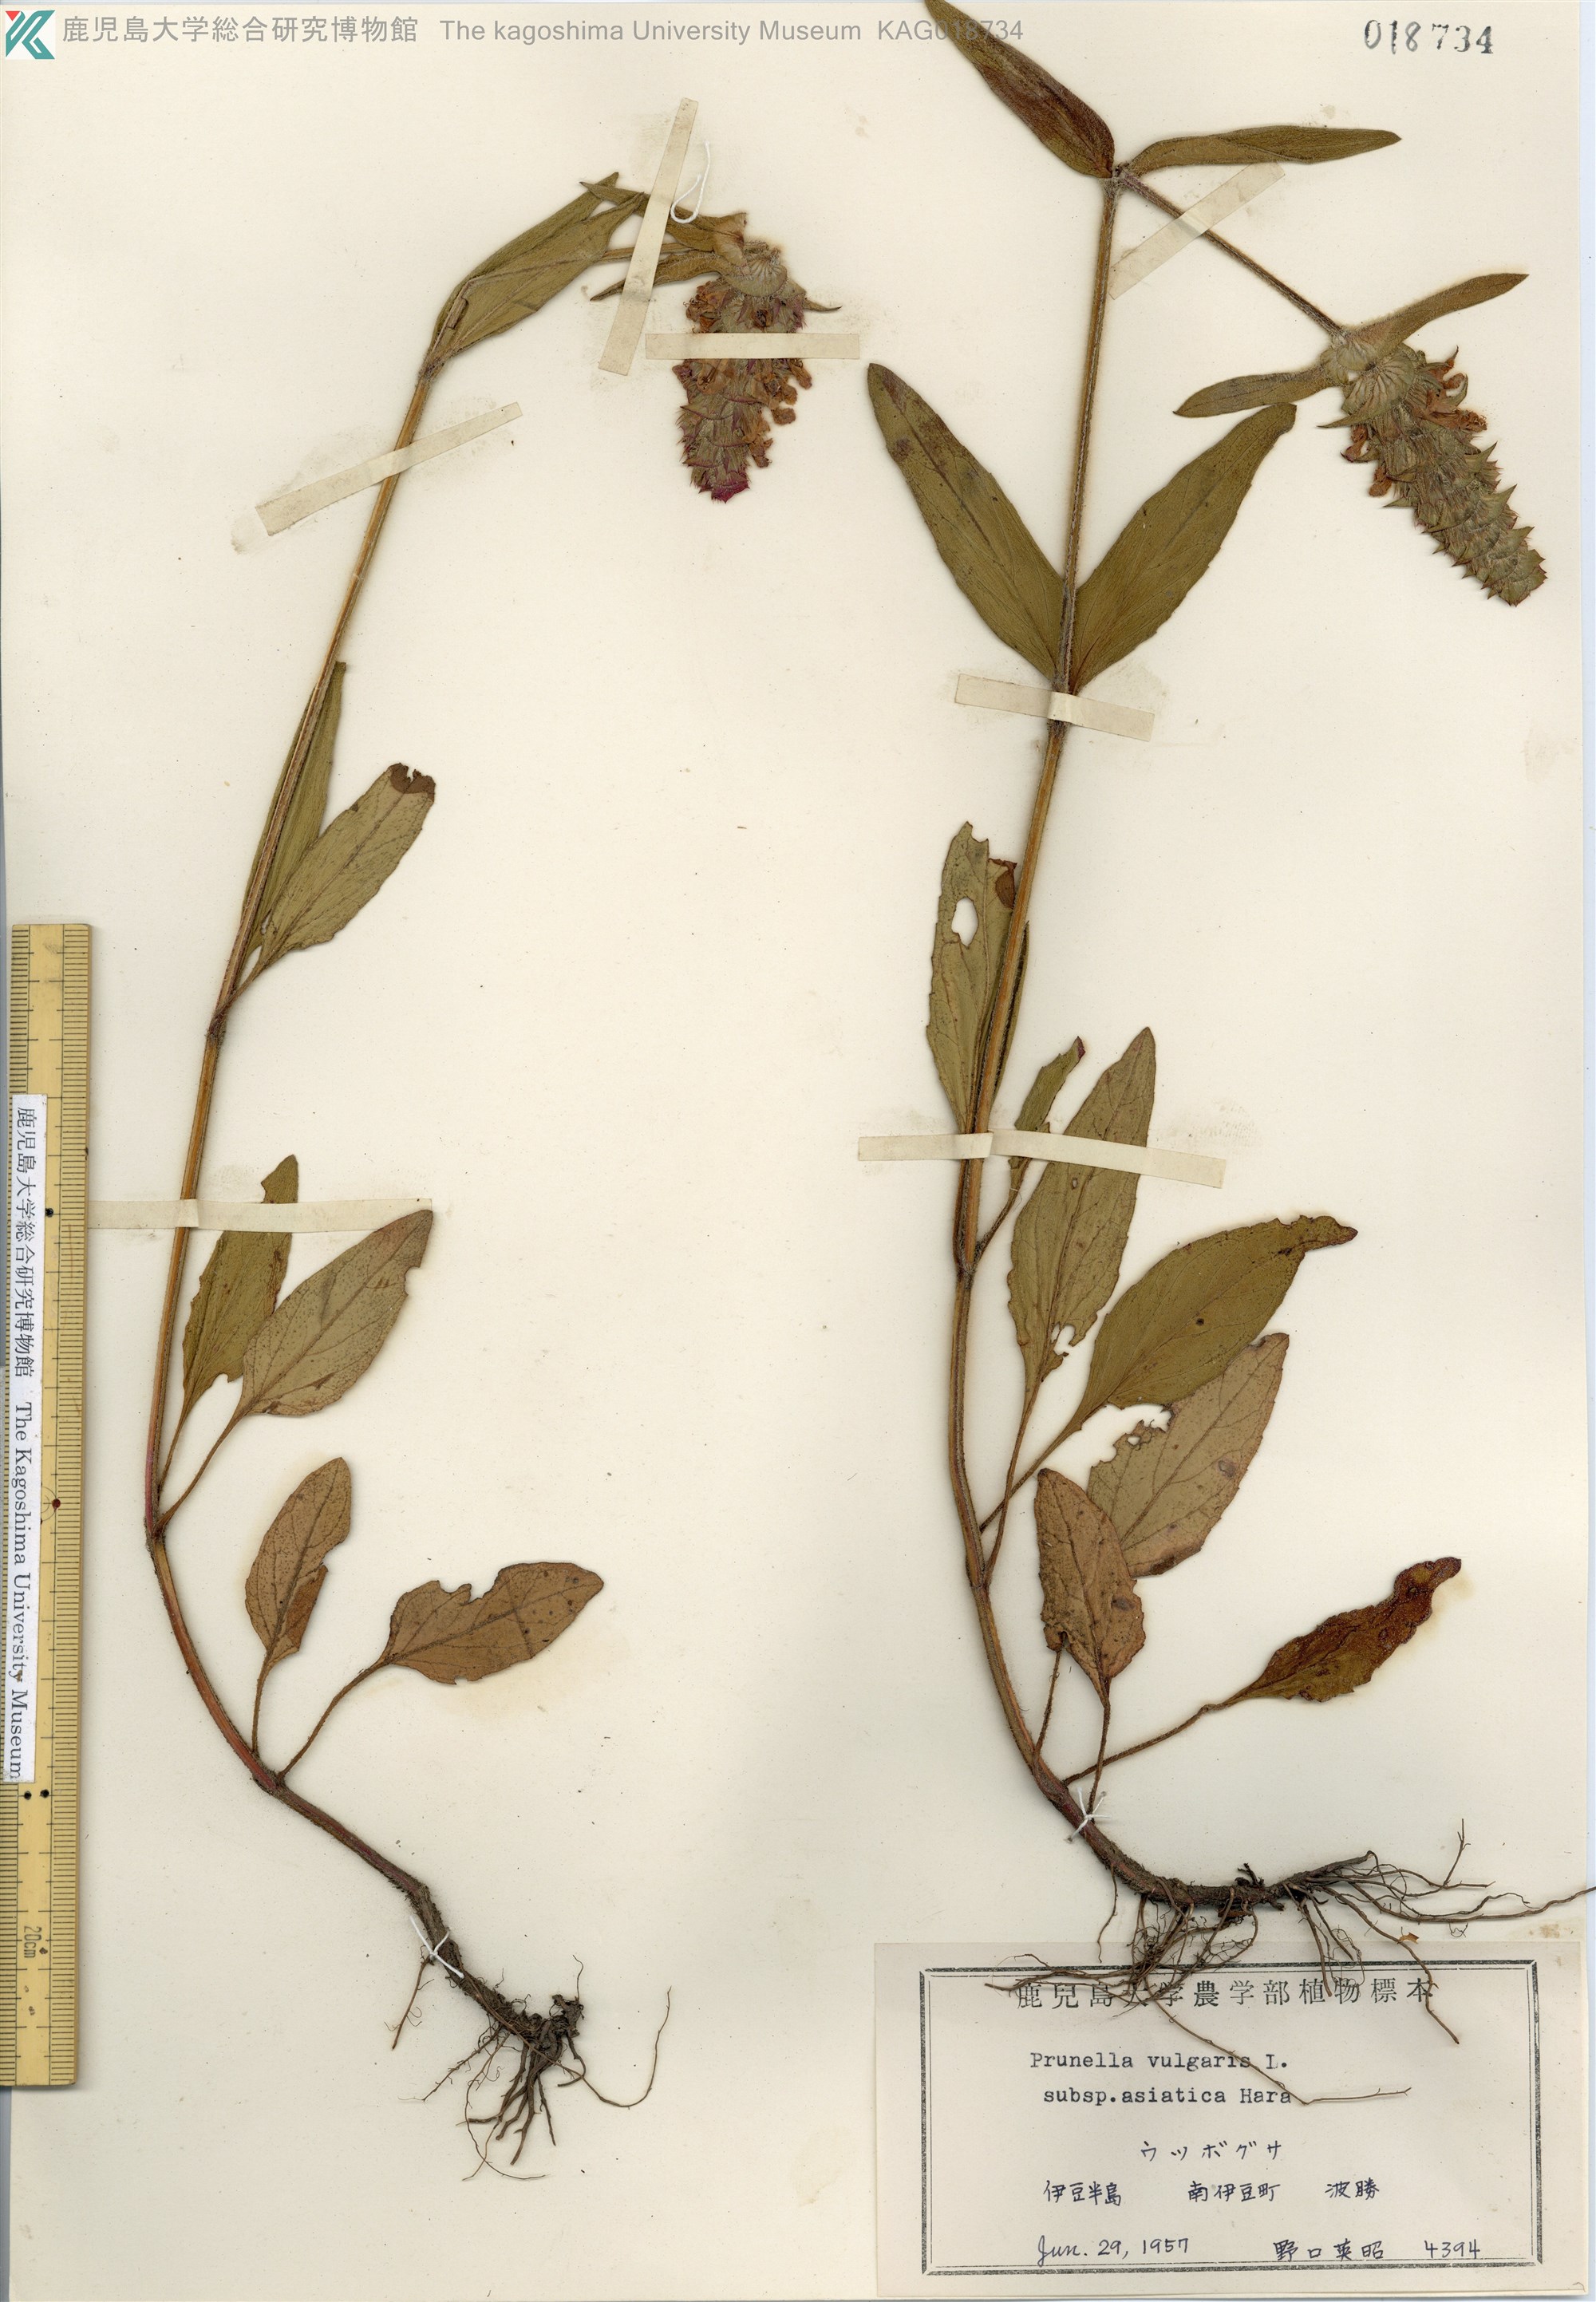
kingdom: Plantae
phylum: Tracheophyta
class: Magnoliopsida
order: Lamiales
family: Lamiaceae
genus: Prunella
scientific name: Prunella vulgaris
